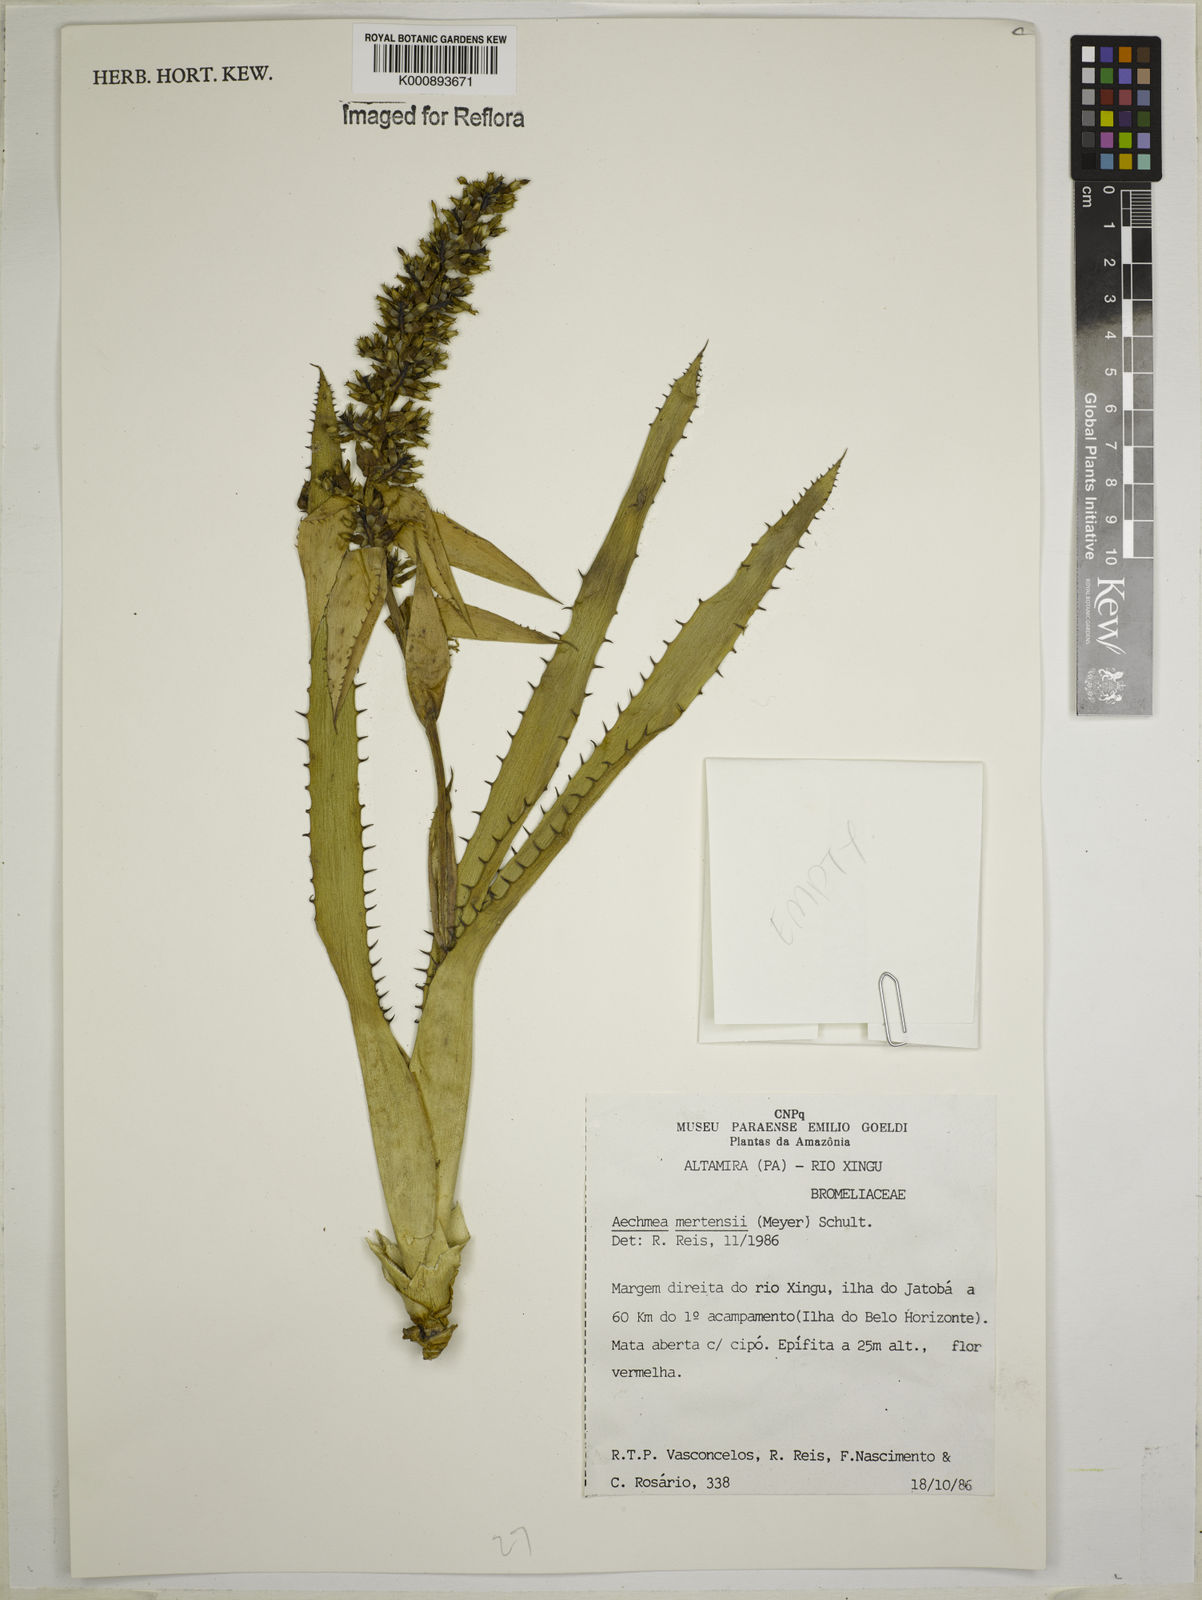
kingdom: Plantae
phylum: Tracheophyta
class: Liliopsida
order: Poales
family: Bromeliaceae
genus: Aechmea
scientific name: Aechmea mertensii
